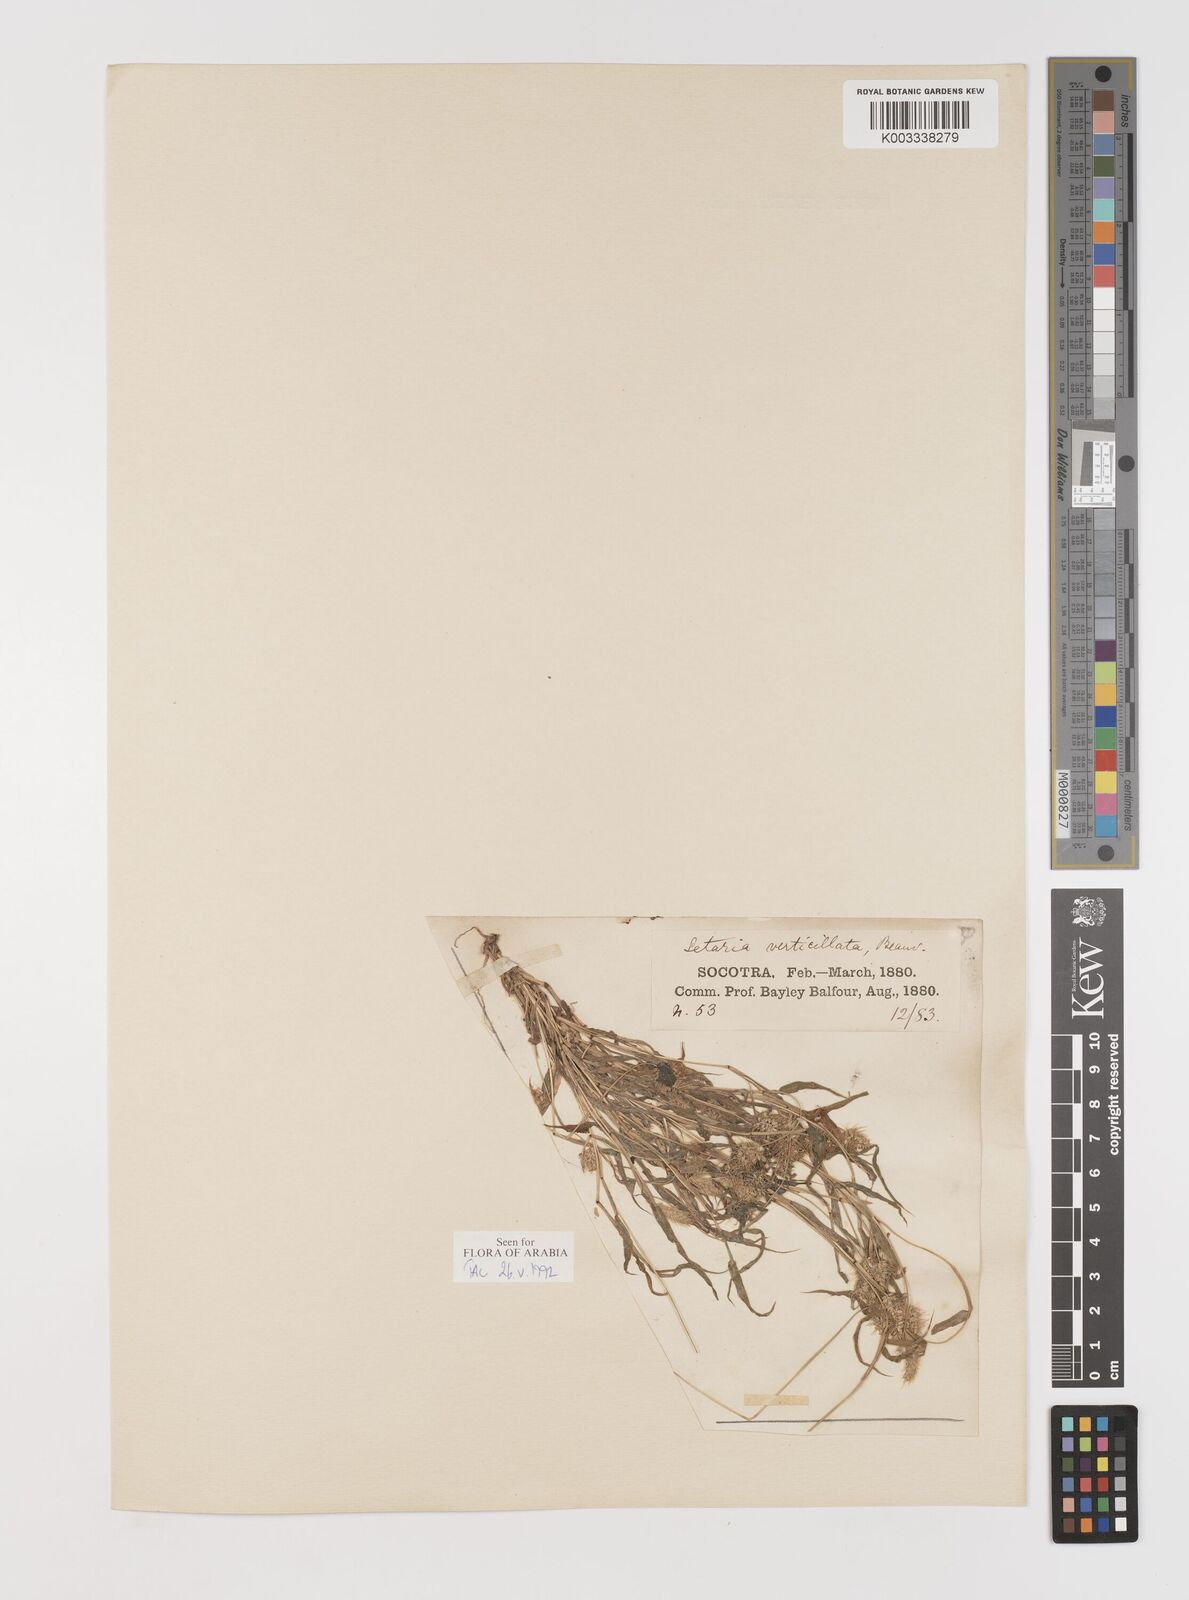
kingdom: Plantae
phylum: Tracheophyta
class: Liliopsida
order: Poales
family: Poaceae
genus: Setaria
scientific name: Setaria verticillata
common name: Hooked bristlegrass
